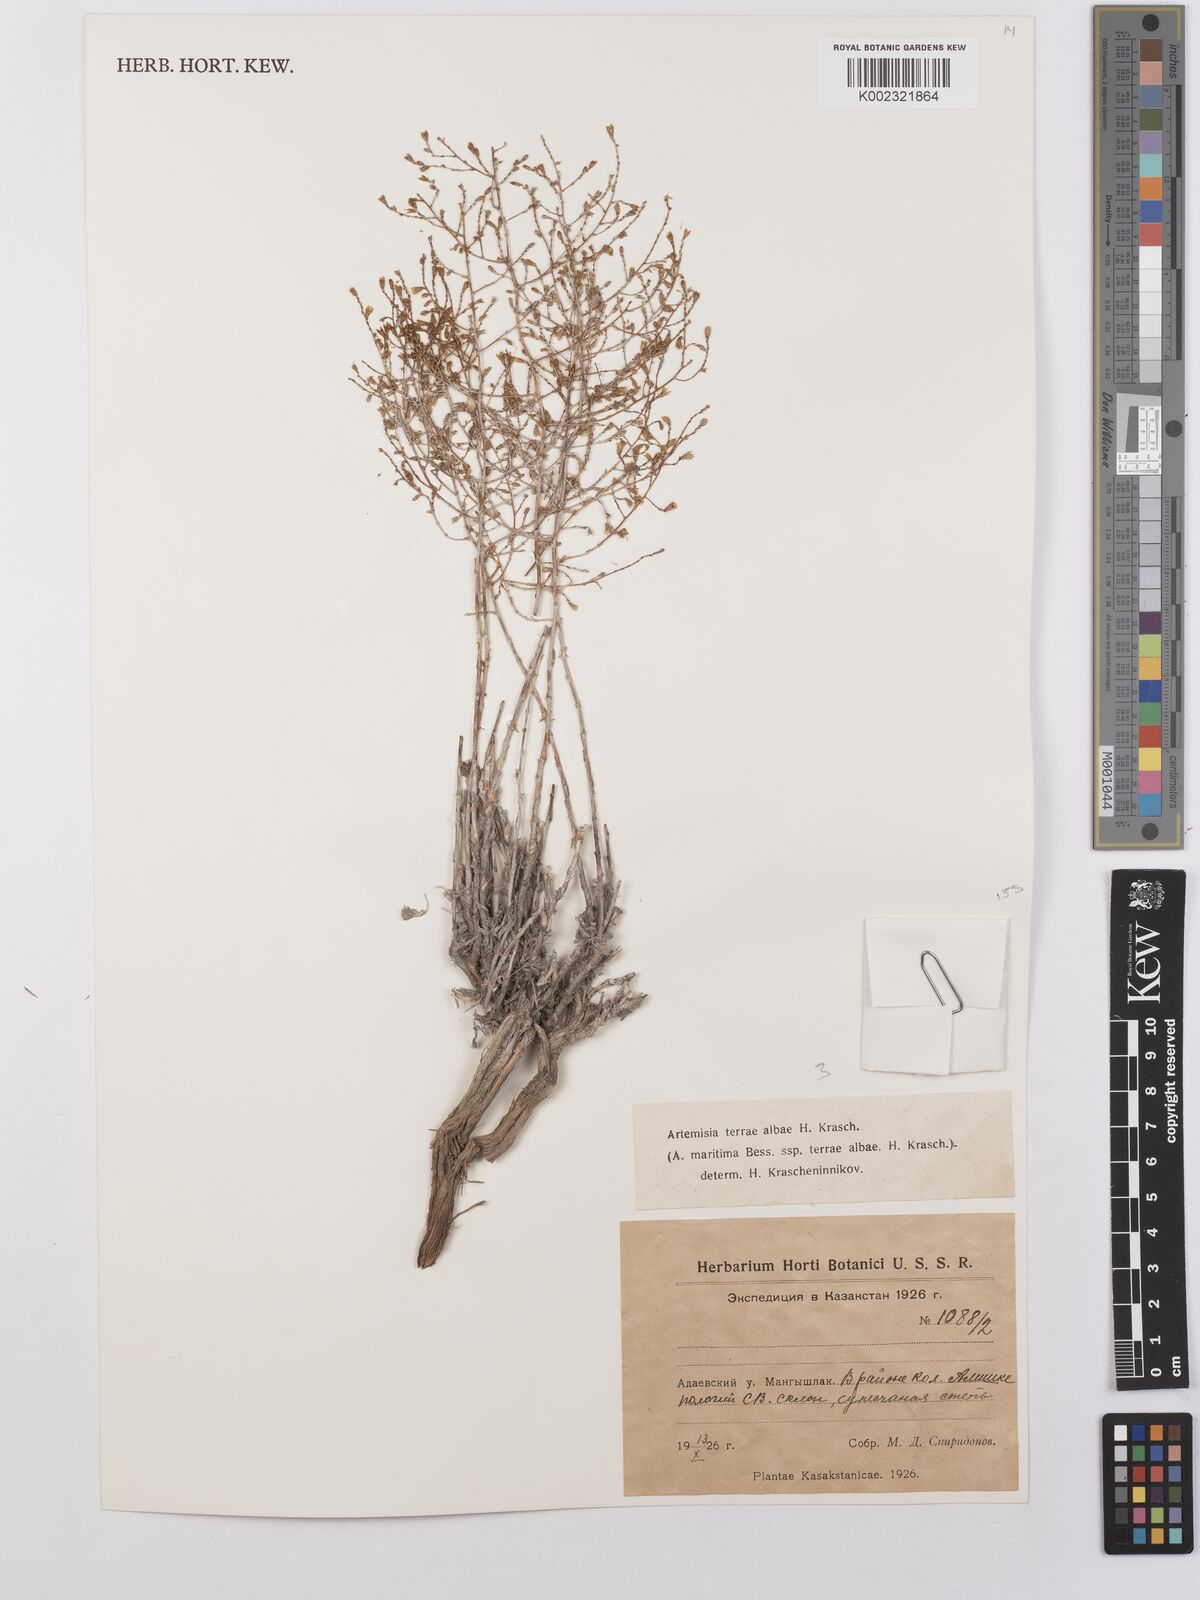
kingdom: Plantae
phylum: Tracheophyta
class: Magnoliopsida
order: Asterales
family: Asteraceae
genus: Artemisia
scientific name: Artemisia terrae-albae
